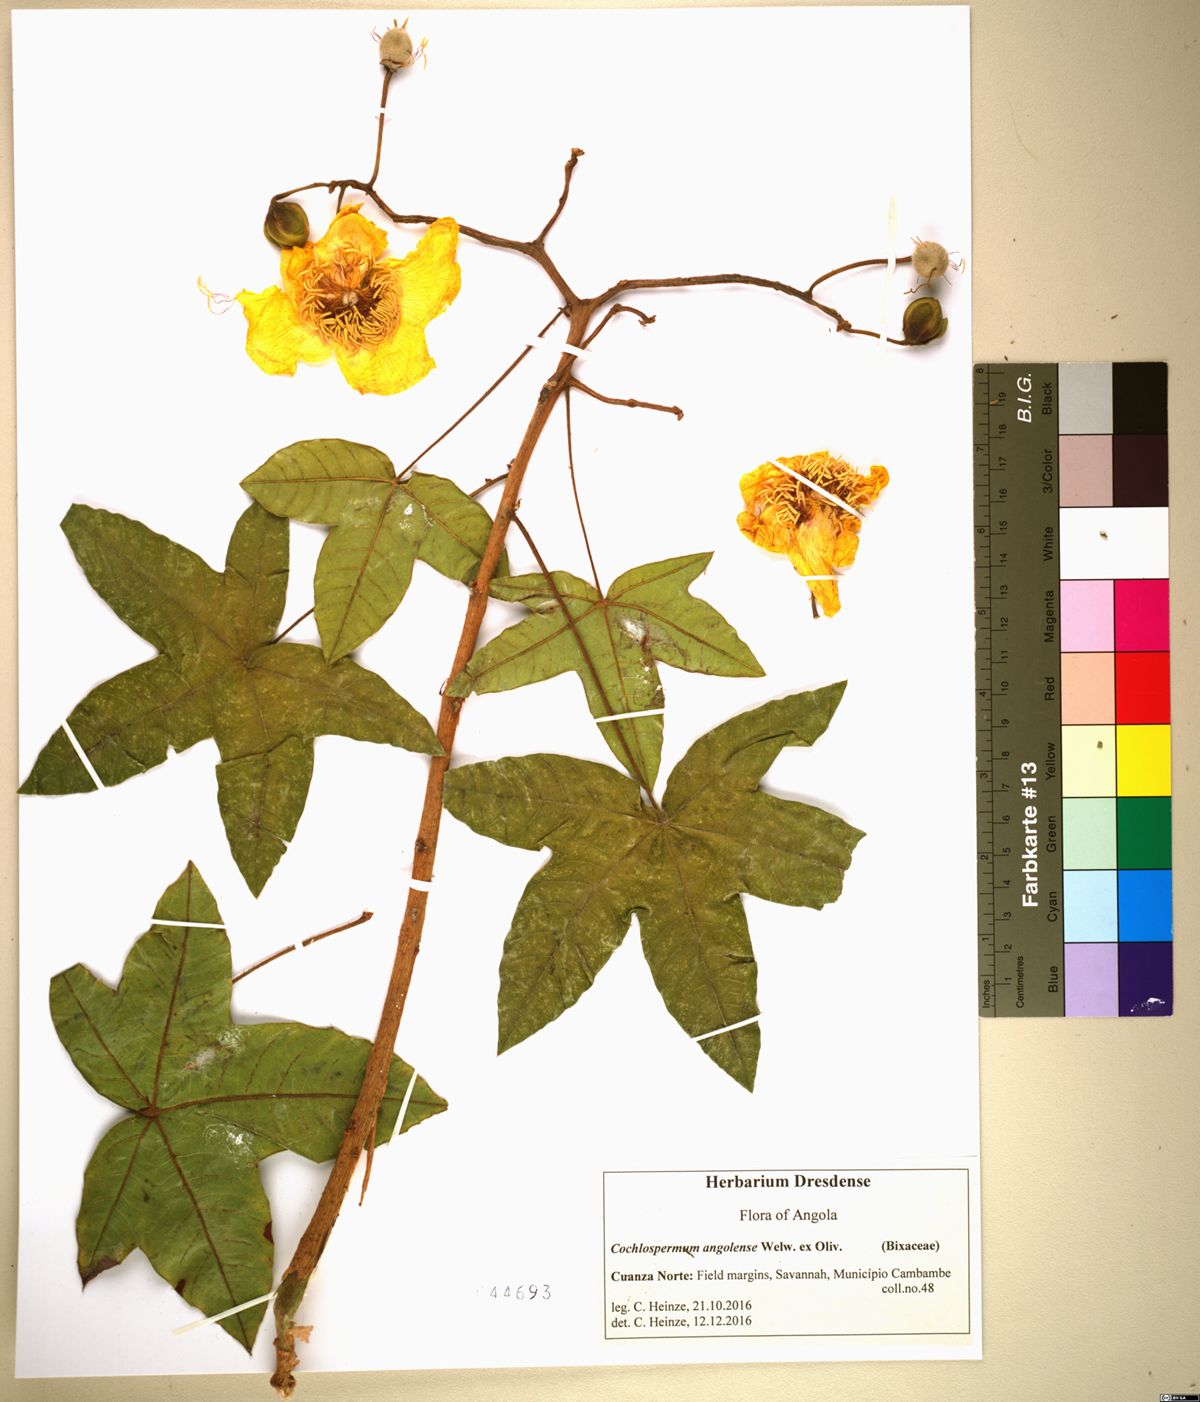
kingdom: Plantae
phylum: Tracheophyta
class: Magnoliopsida
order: Malvales
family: Cochlospermaceae
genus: Cochlospermum
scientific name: Cochlospermum angolense
